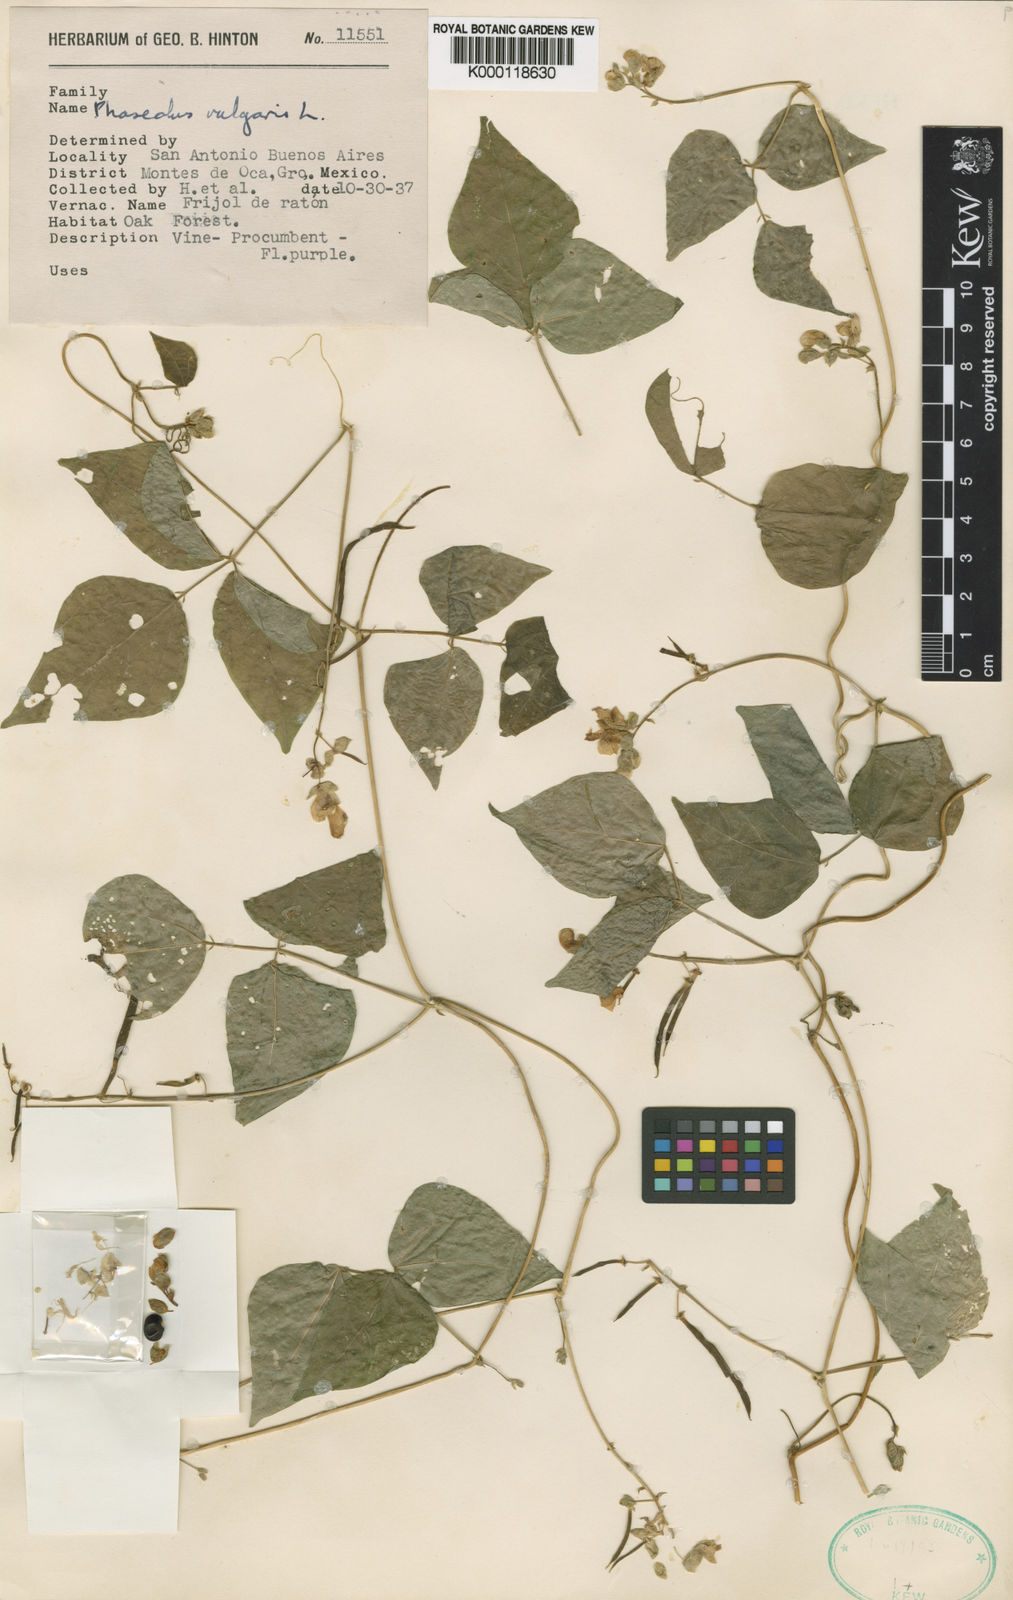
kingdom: Plantae
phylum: Tracheophyta
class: Magnoliopsida
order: Fabales
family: Fabaceae
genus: Phaseolus
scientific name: Phaseolus vulgaris
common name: Bean
